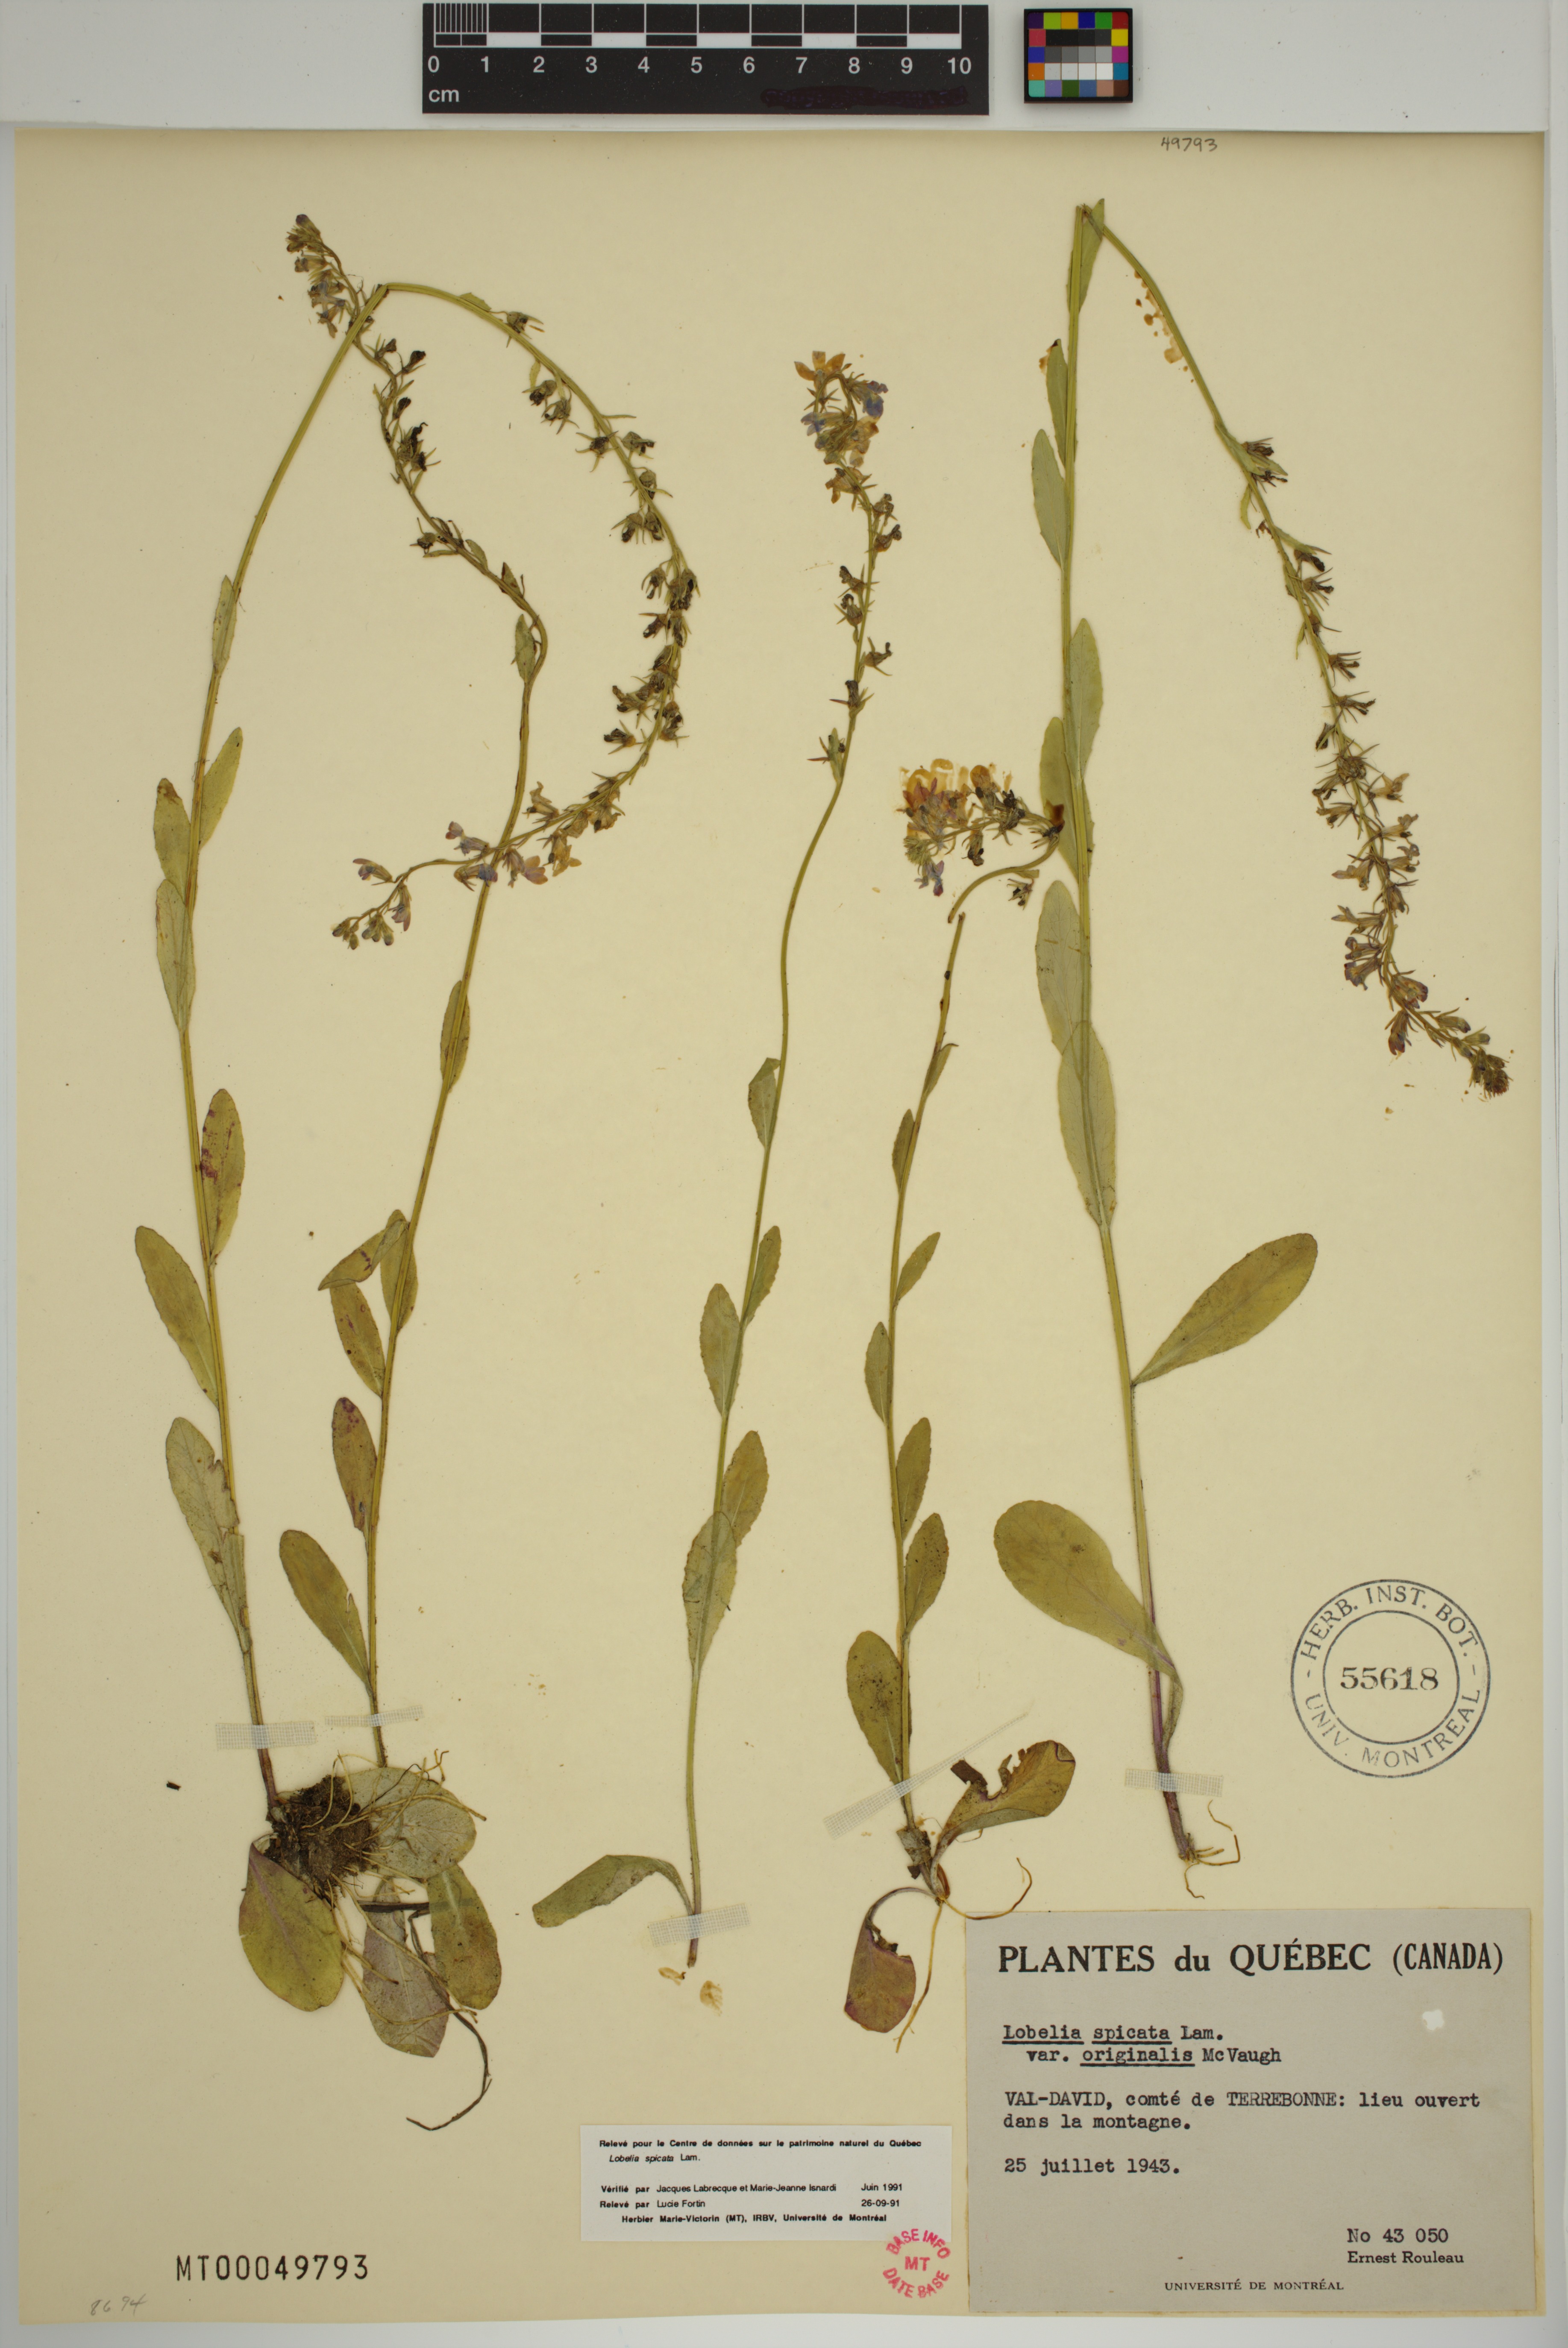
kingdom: Plantae
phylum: Tracheophyta
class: Magnoliopsida
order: Asterales
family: Campanulaceae
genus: Lobelia
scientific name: Lobelia spicata
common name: Pale-spike lobelia
